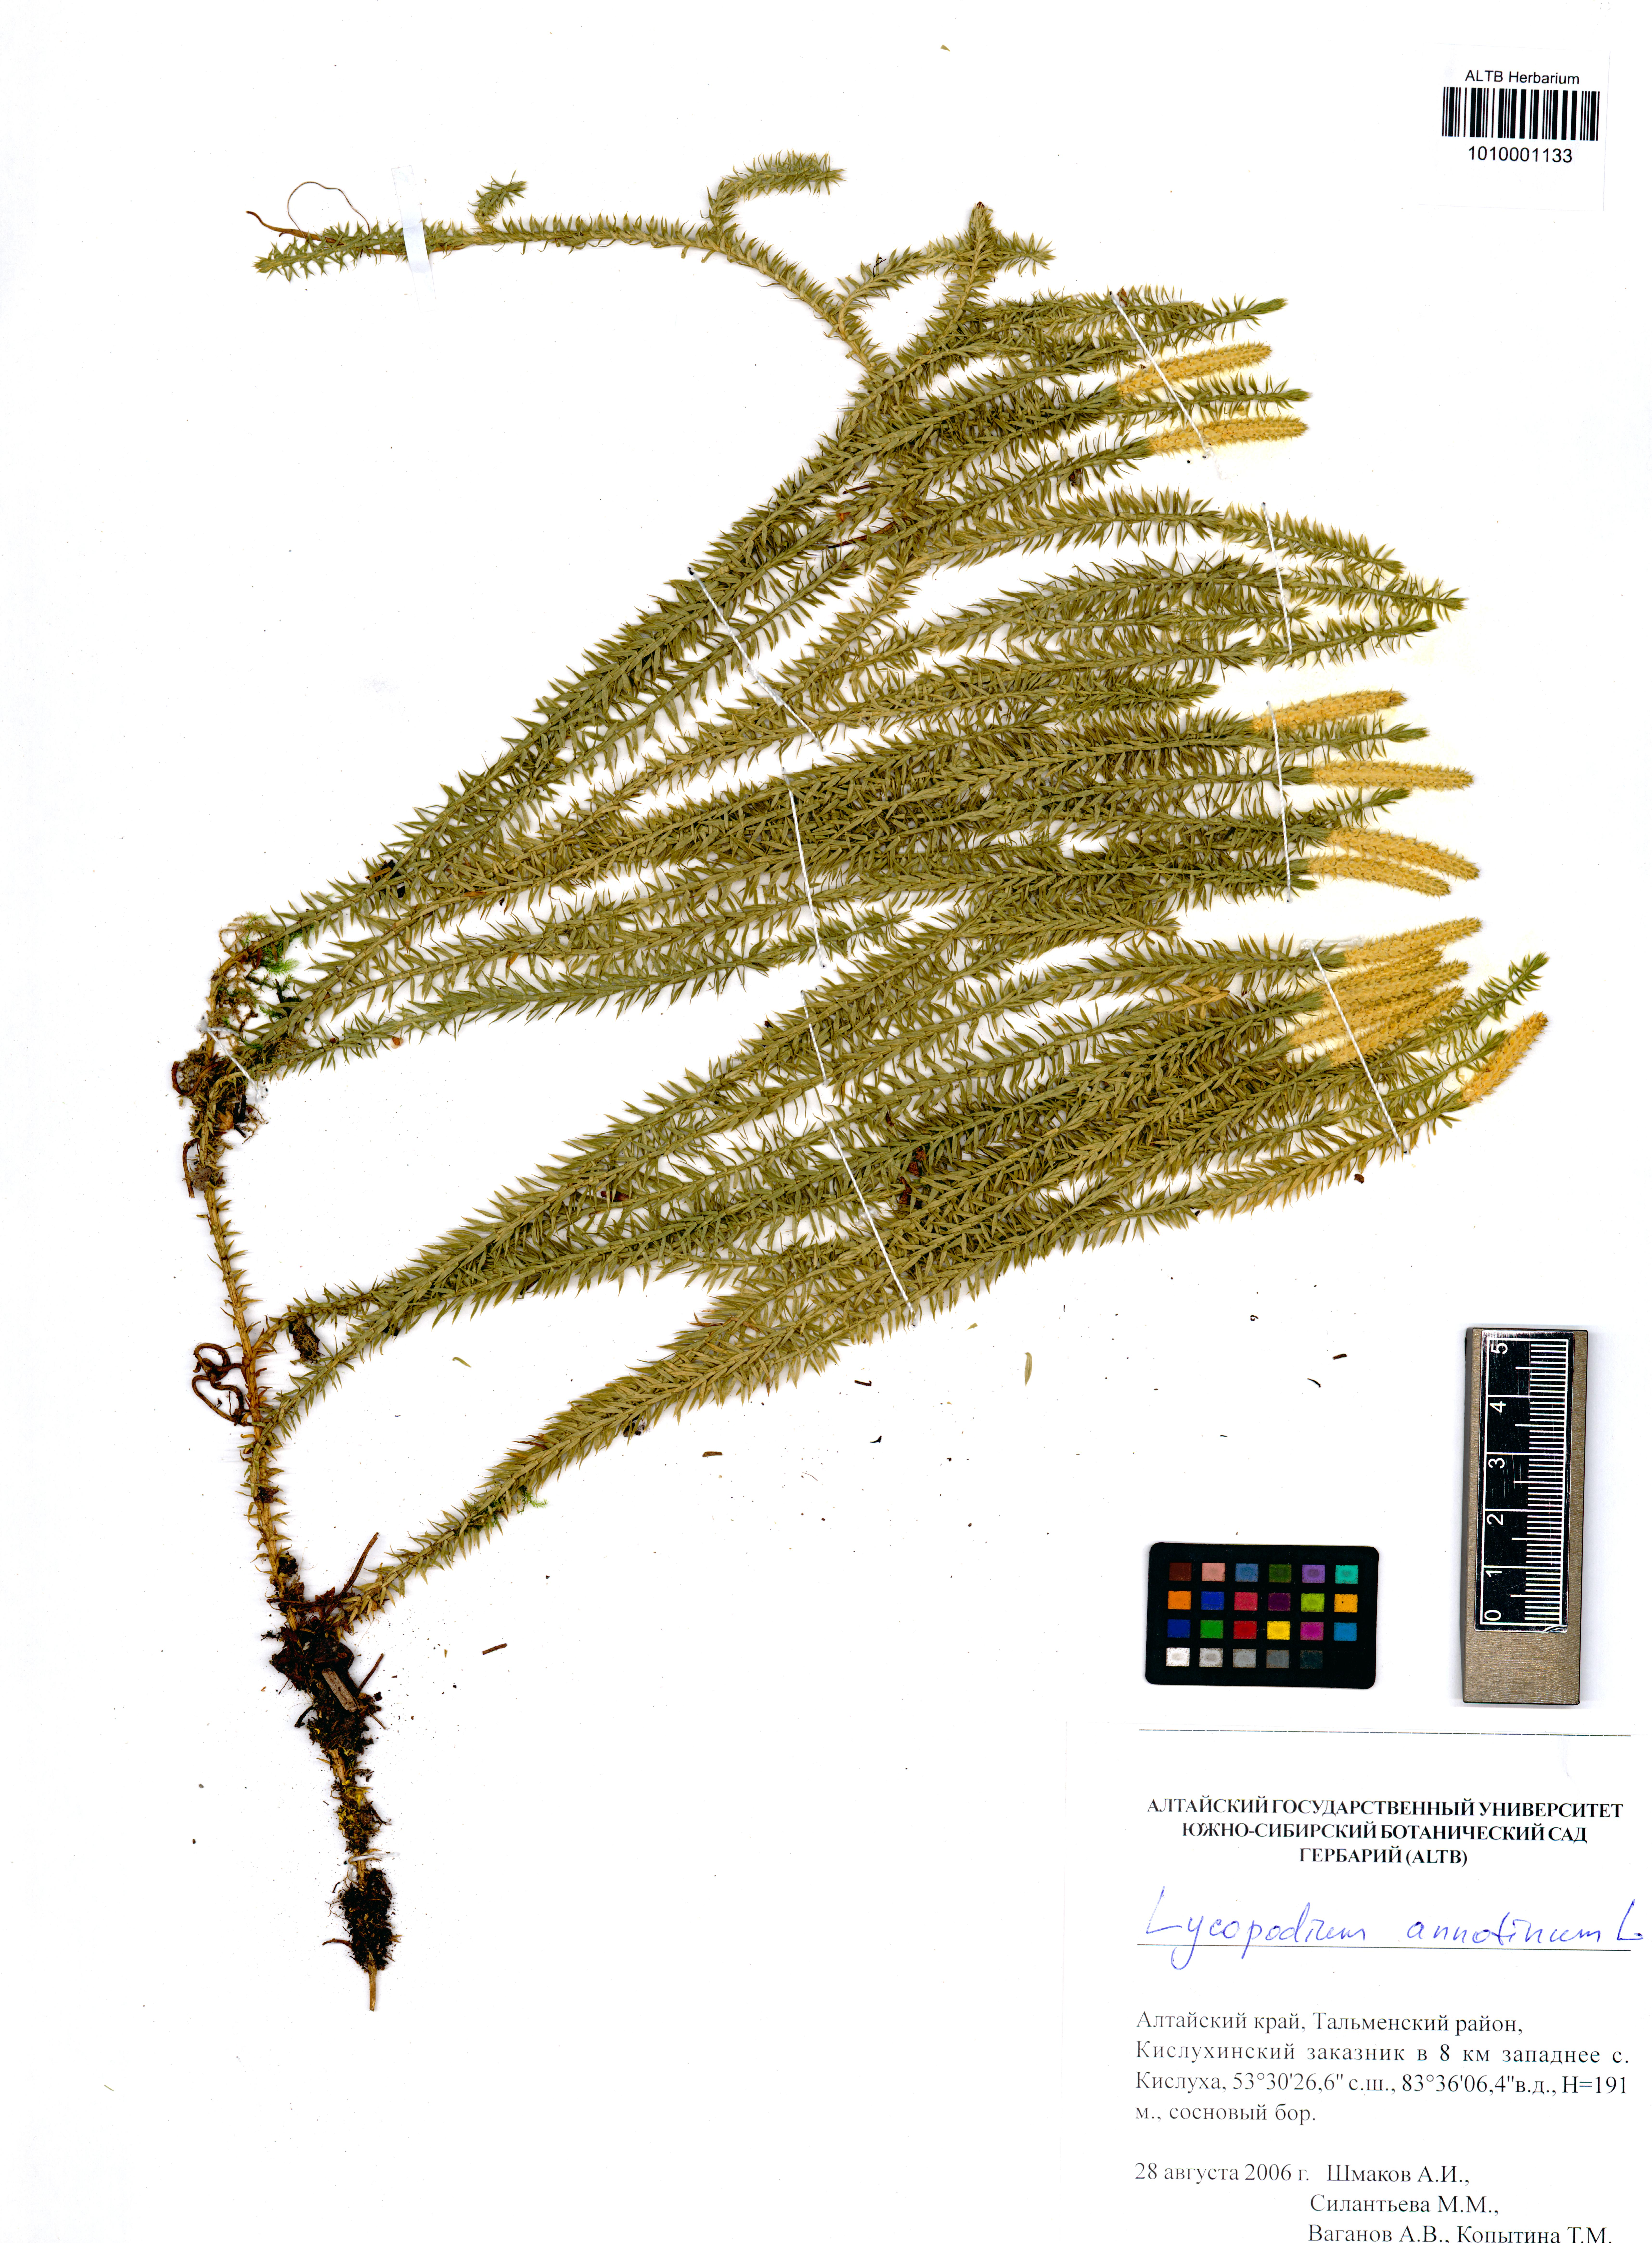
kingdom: Plantae
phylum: Tracheophyta
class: Lycopodiopsida
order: Lycopodiales
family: Lycopodiaceae
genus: Spinulum
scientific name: Spinulum annotinum
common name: Interrupted club-moss
